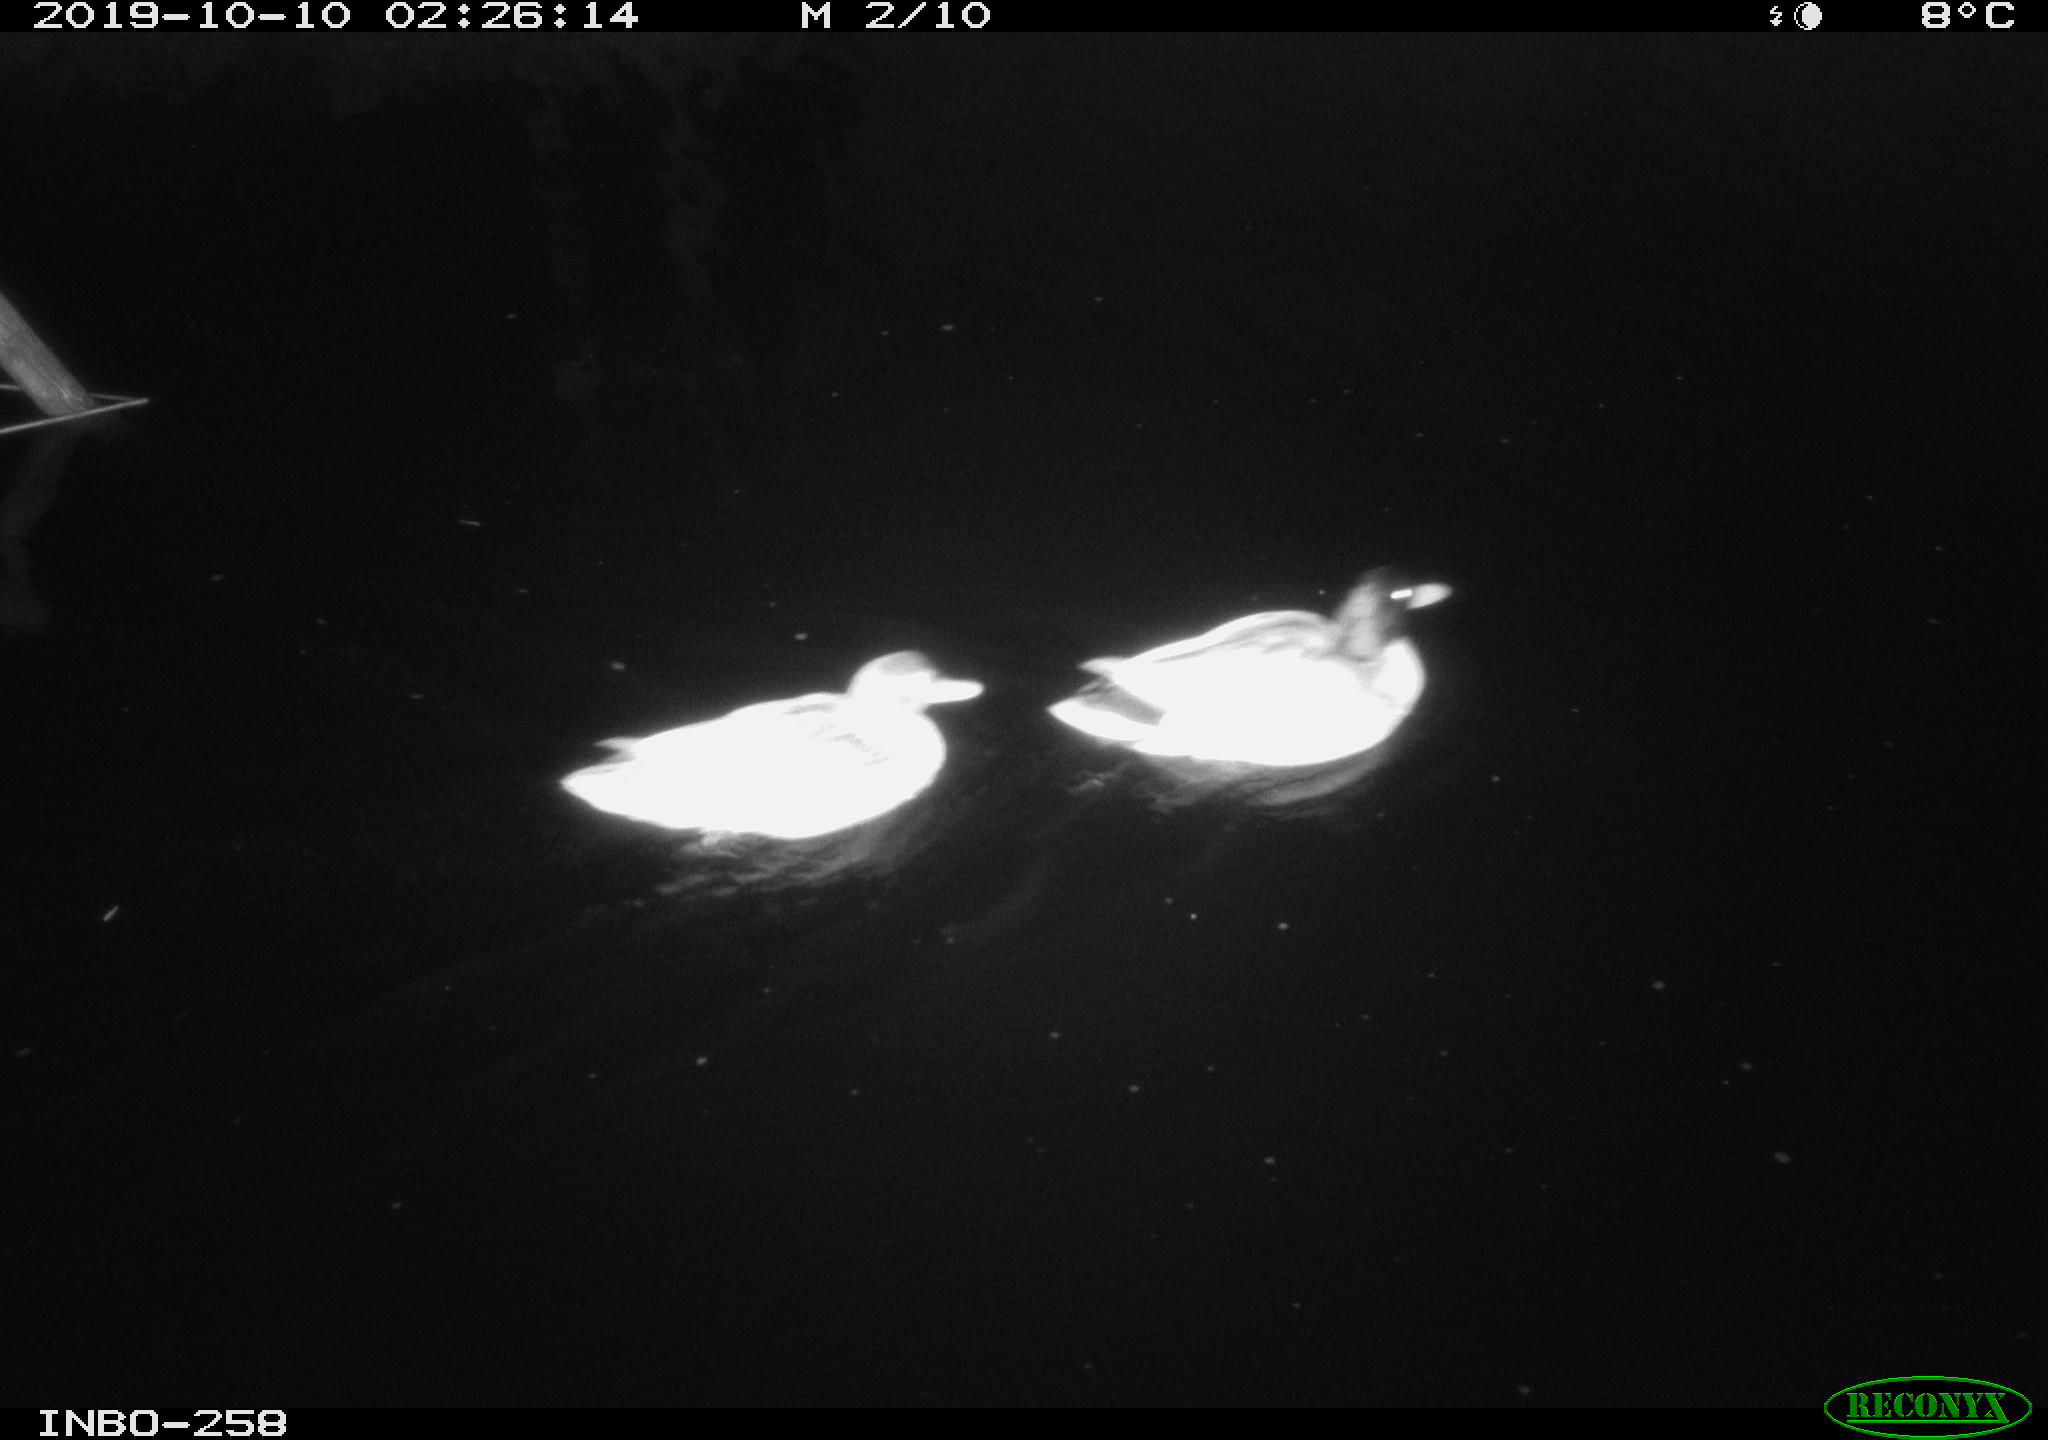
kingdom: Animalia
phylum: Chordata
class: Aves
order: Anseriformes
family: Anatidae
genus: Anas
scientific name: Anas platyrhynchos
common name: Mallard
